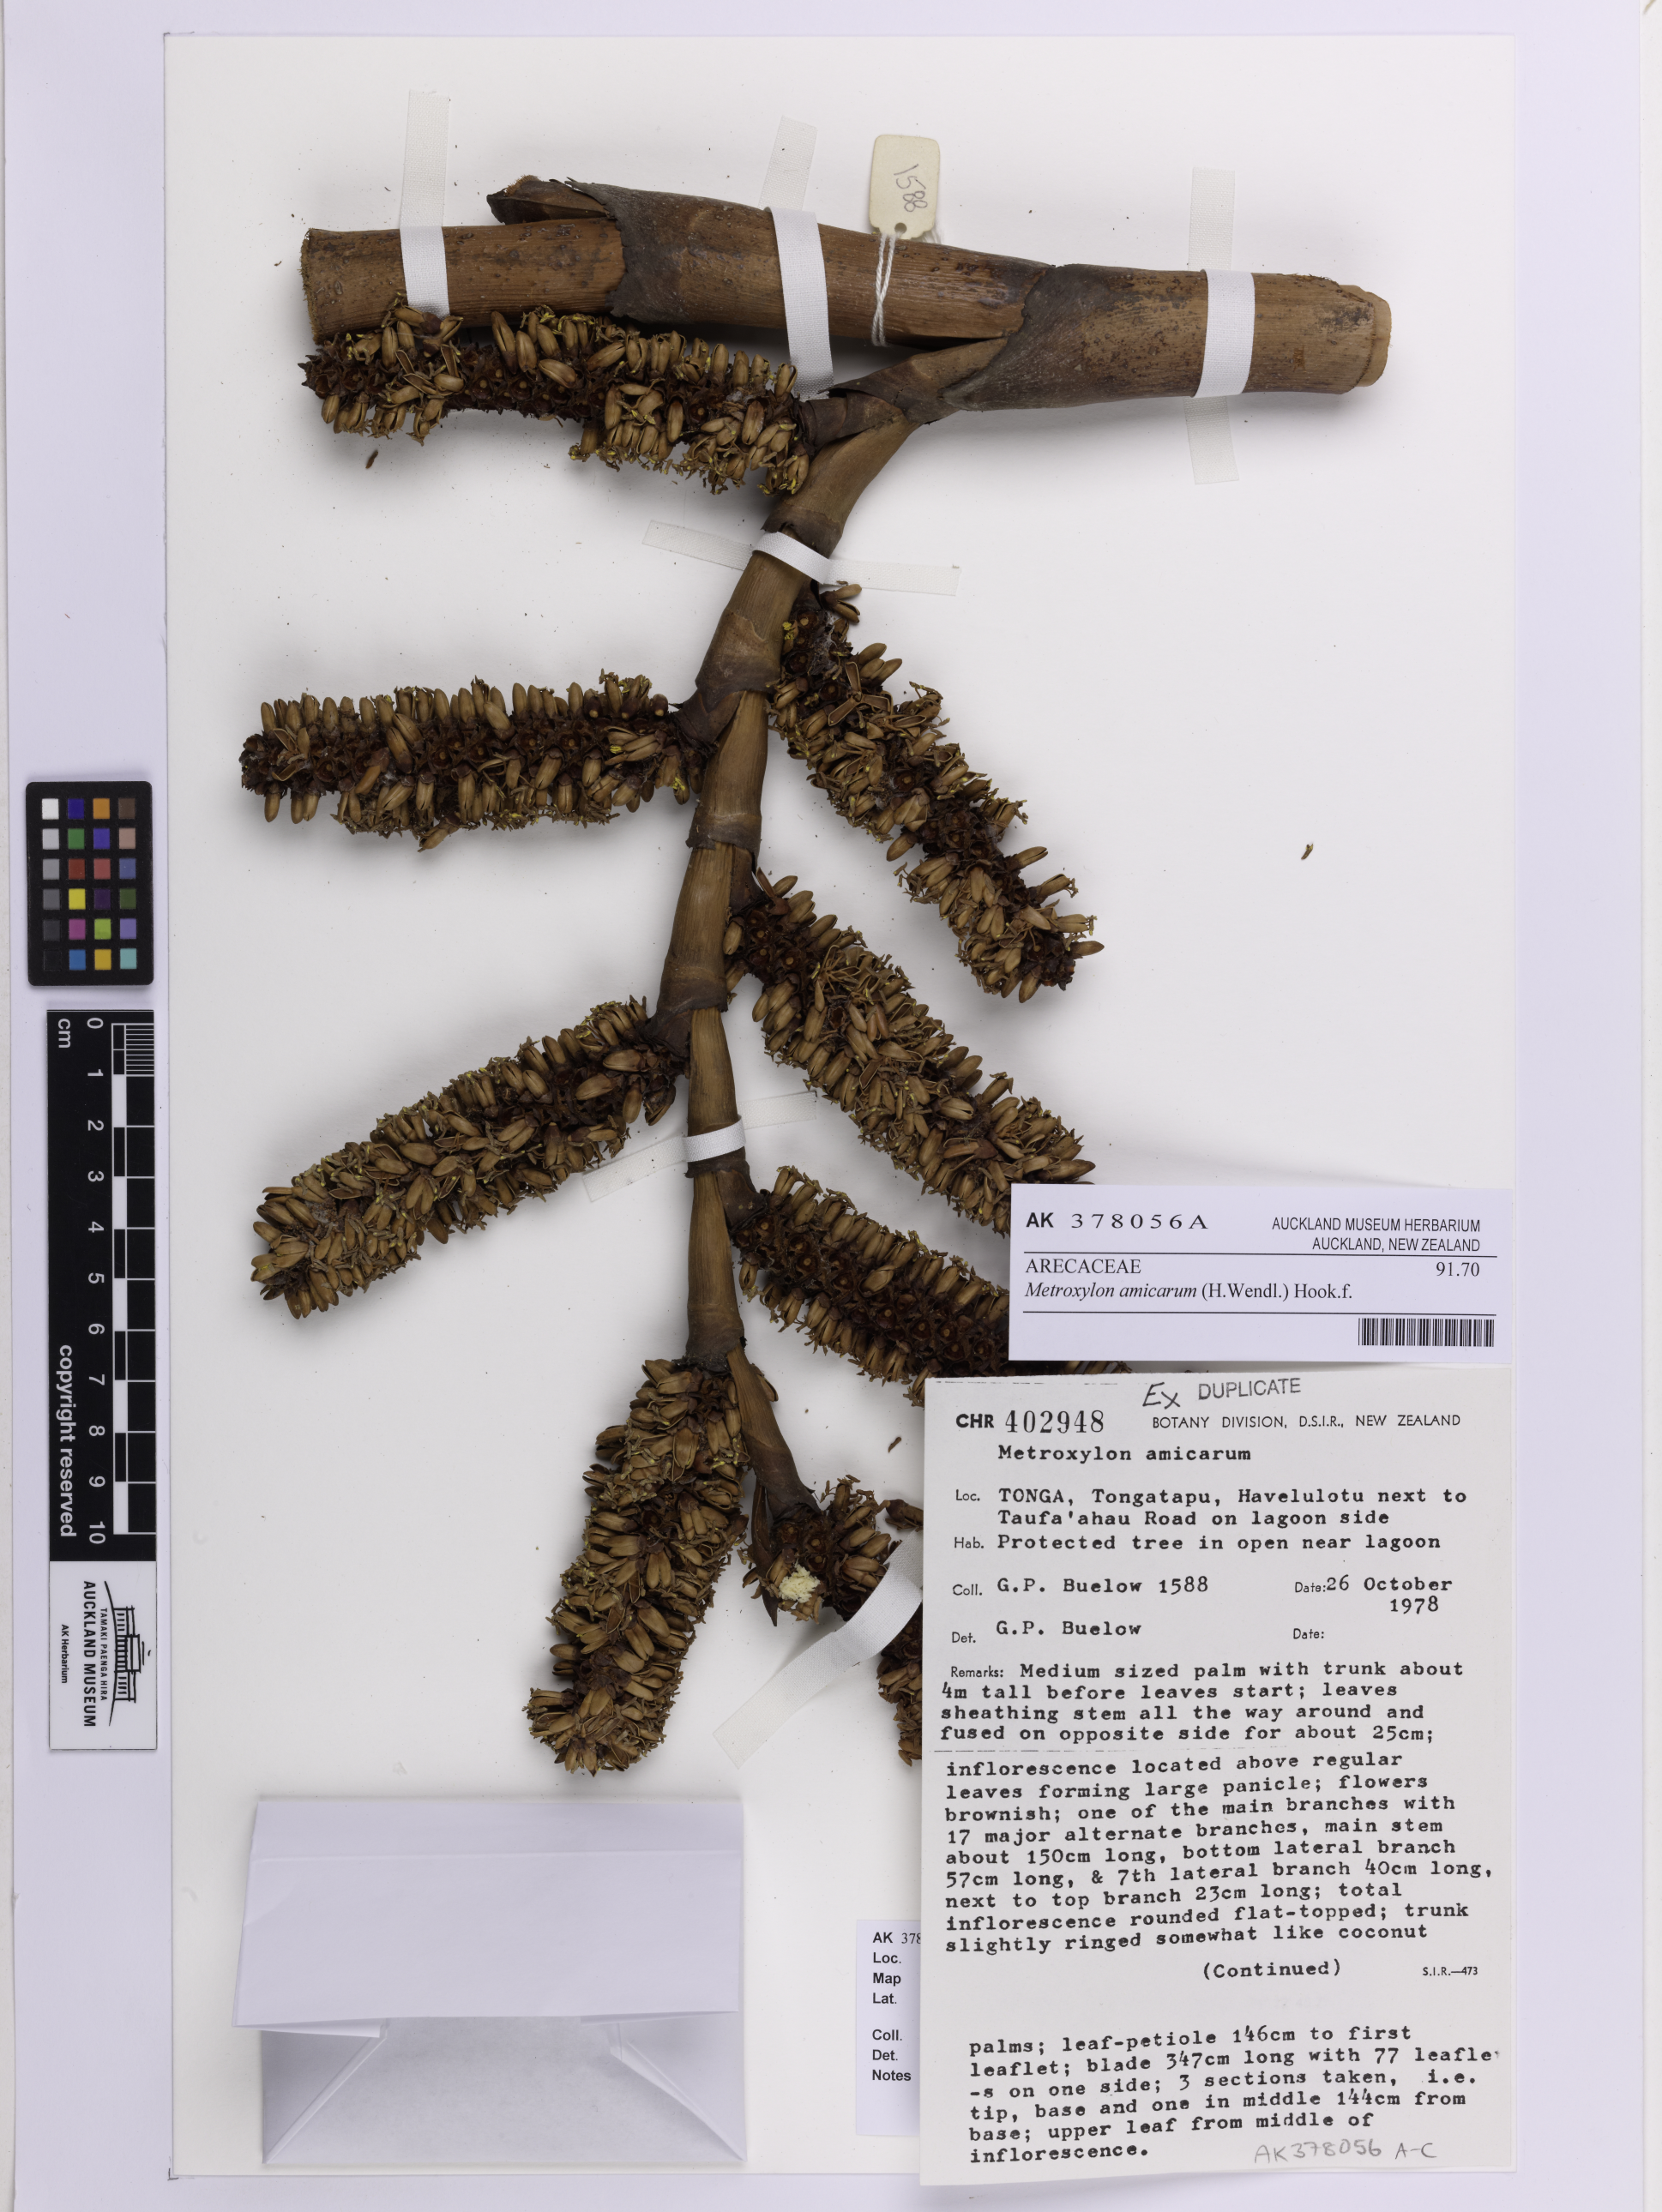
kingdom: Plantae
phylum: Tracheophyta
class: Liliopsida
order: Arecales
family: Arecaceae
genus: Metroxylon
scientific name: Metroxylon amicarum
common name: Caroline ivory nut
